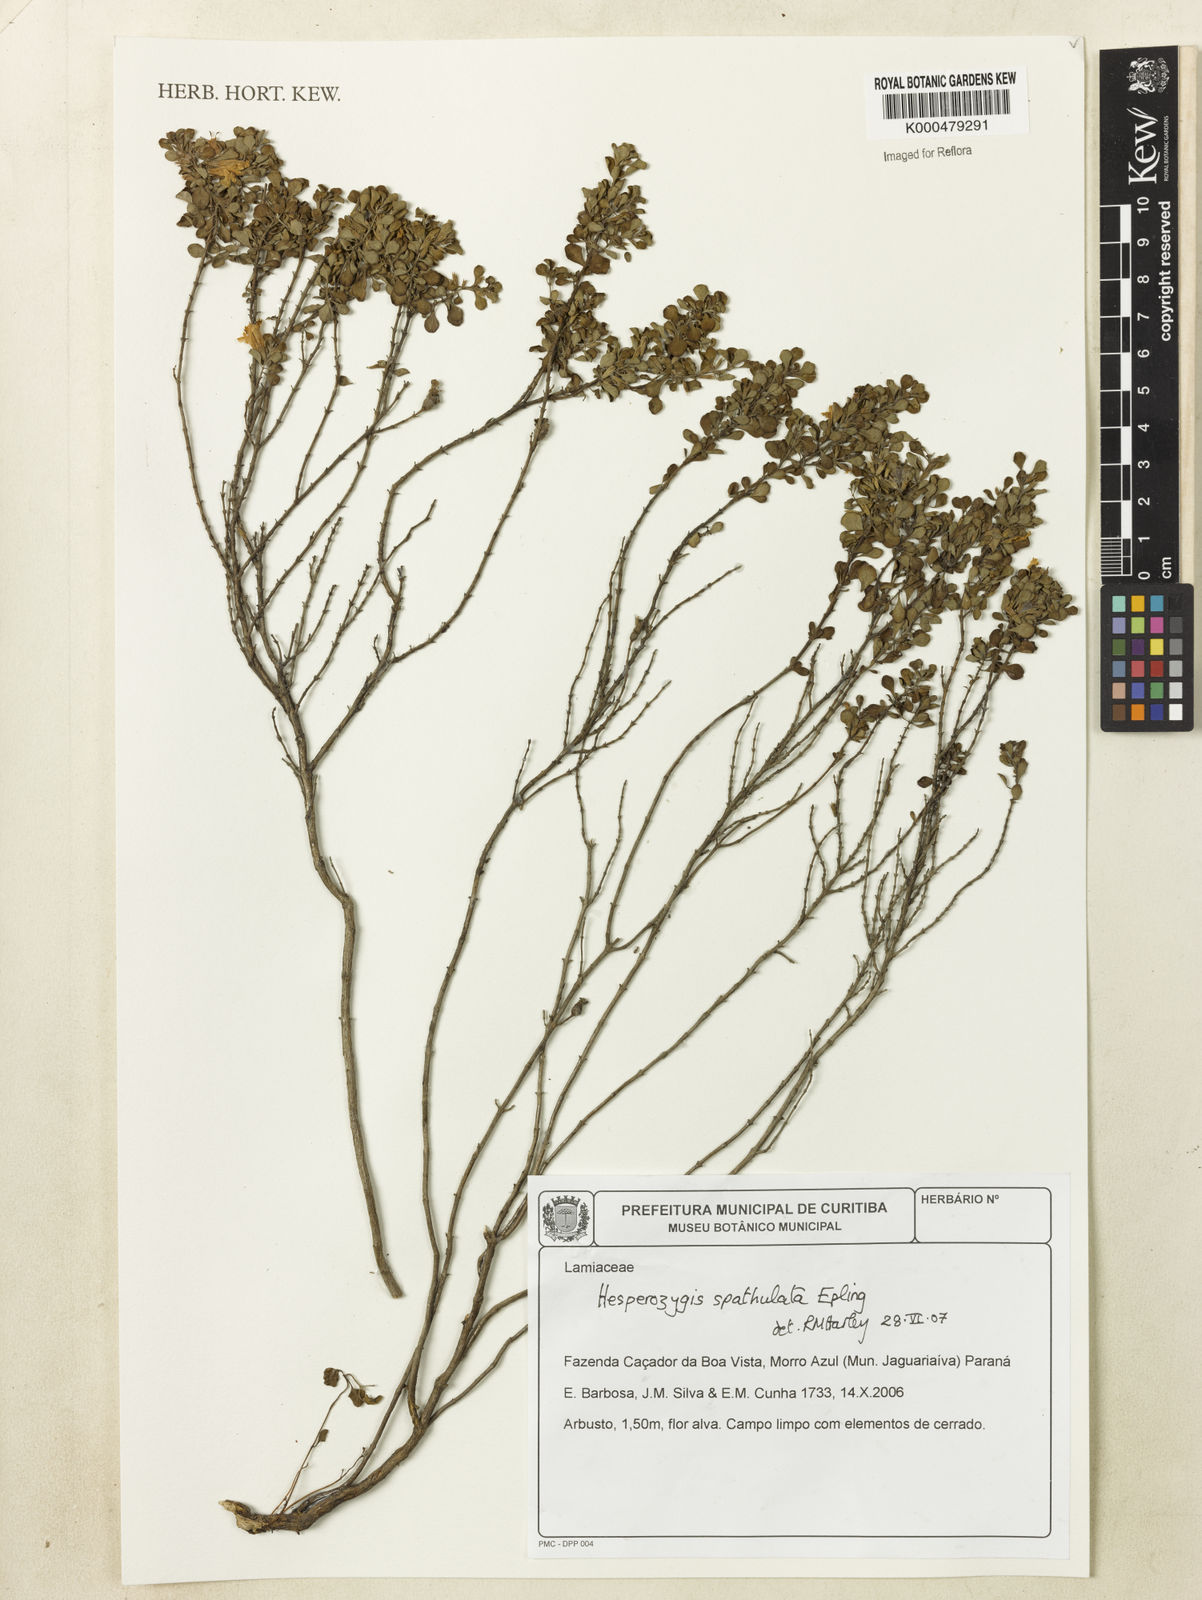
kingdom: Plantae
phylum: Tracheophyta
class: Magnoliopsida
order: Lamiales
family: Lamiaceae
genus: Hesperozygis
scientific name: Hesperozygis spathulata
